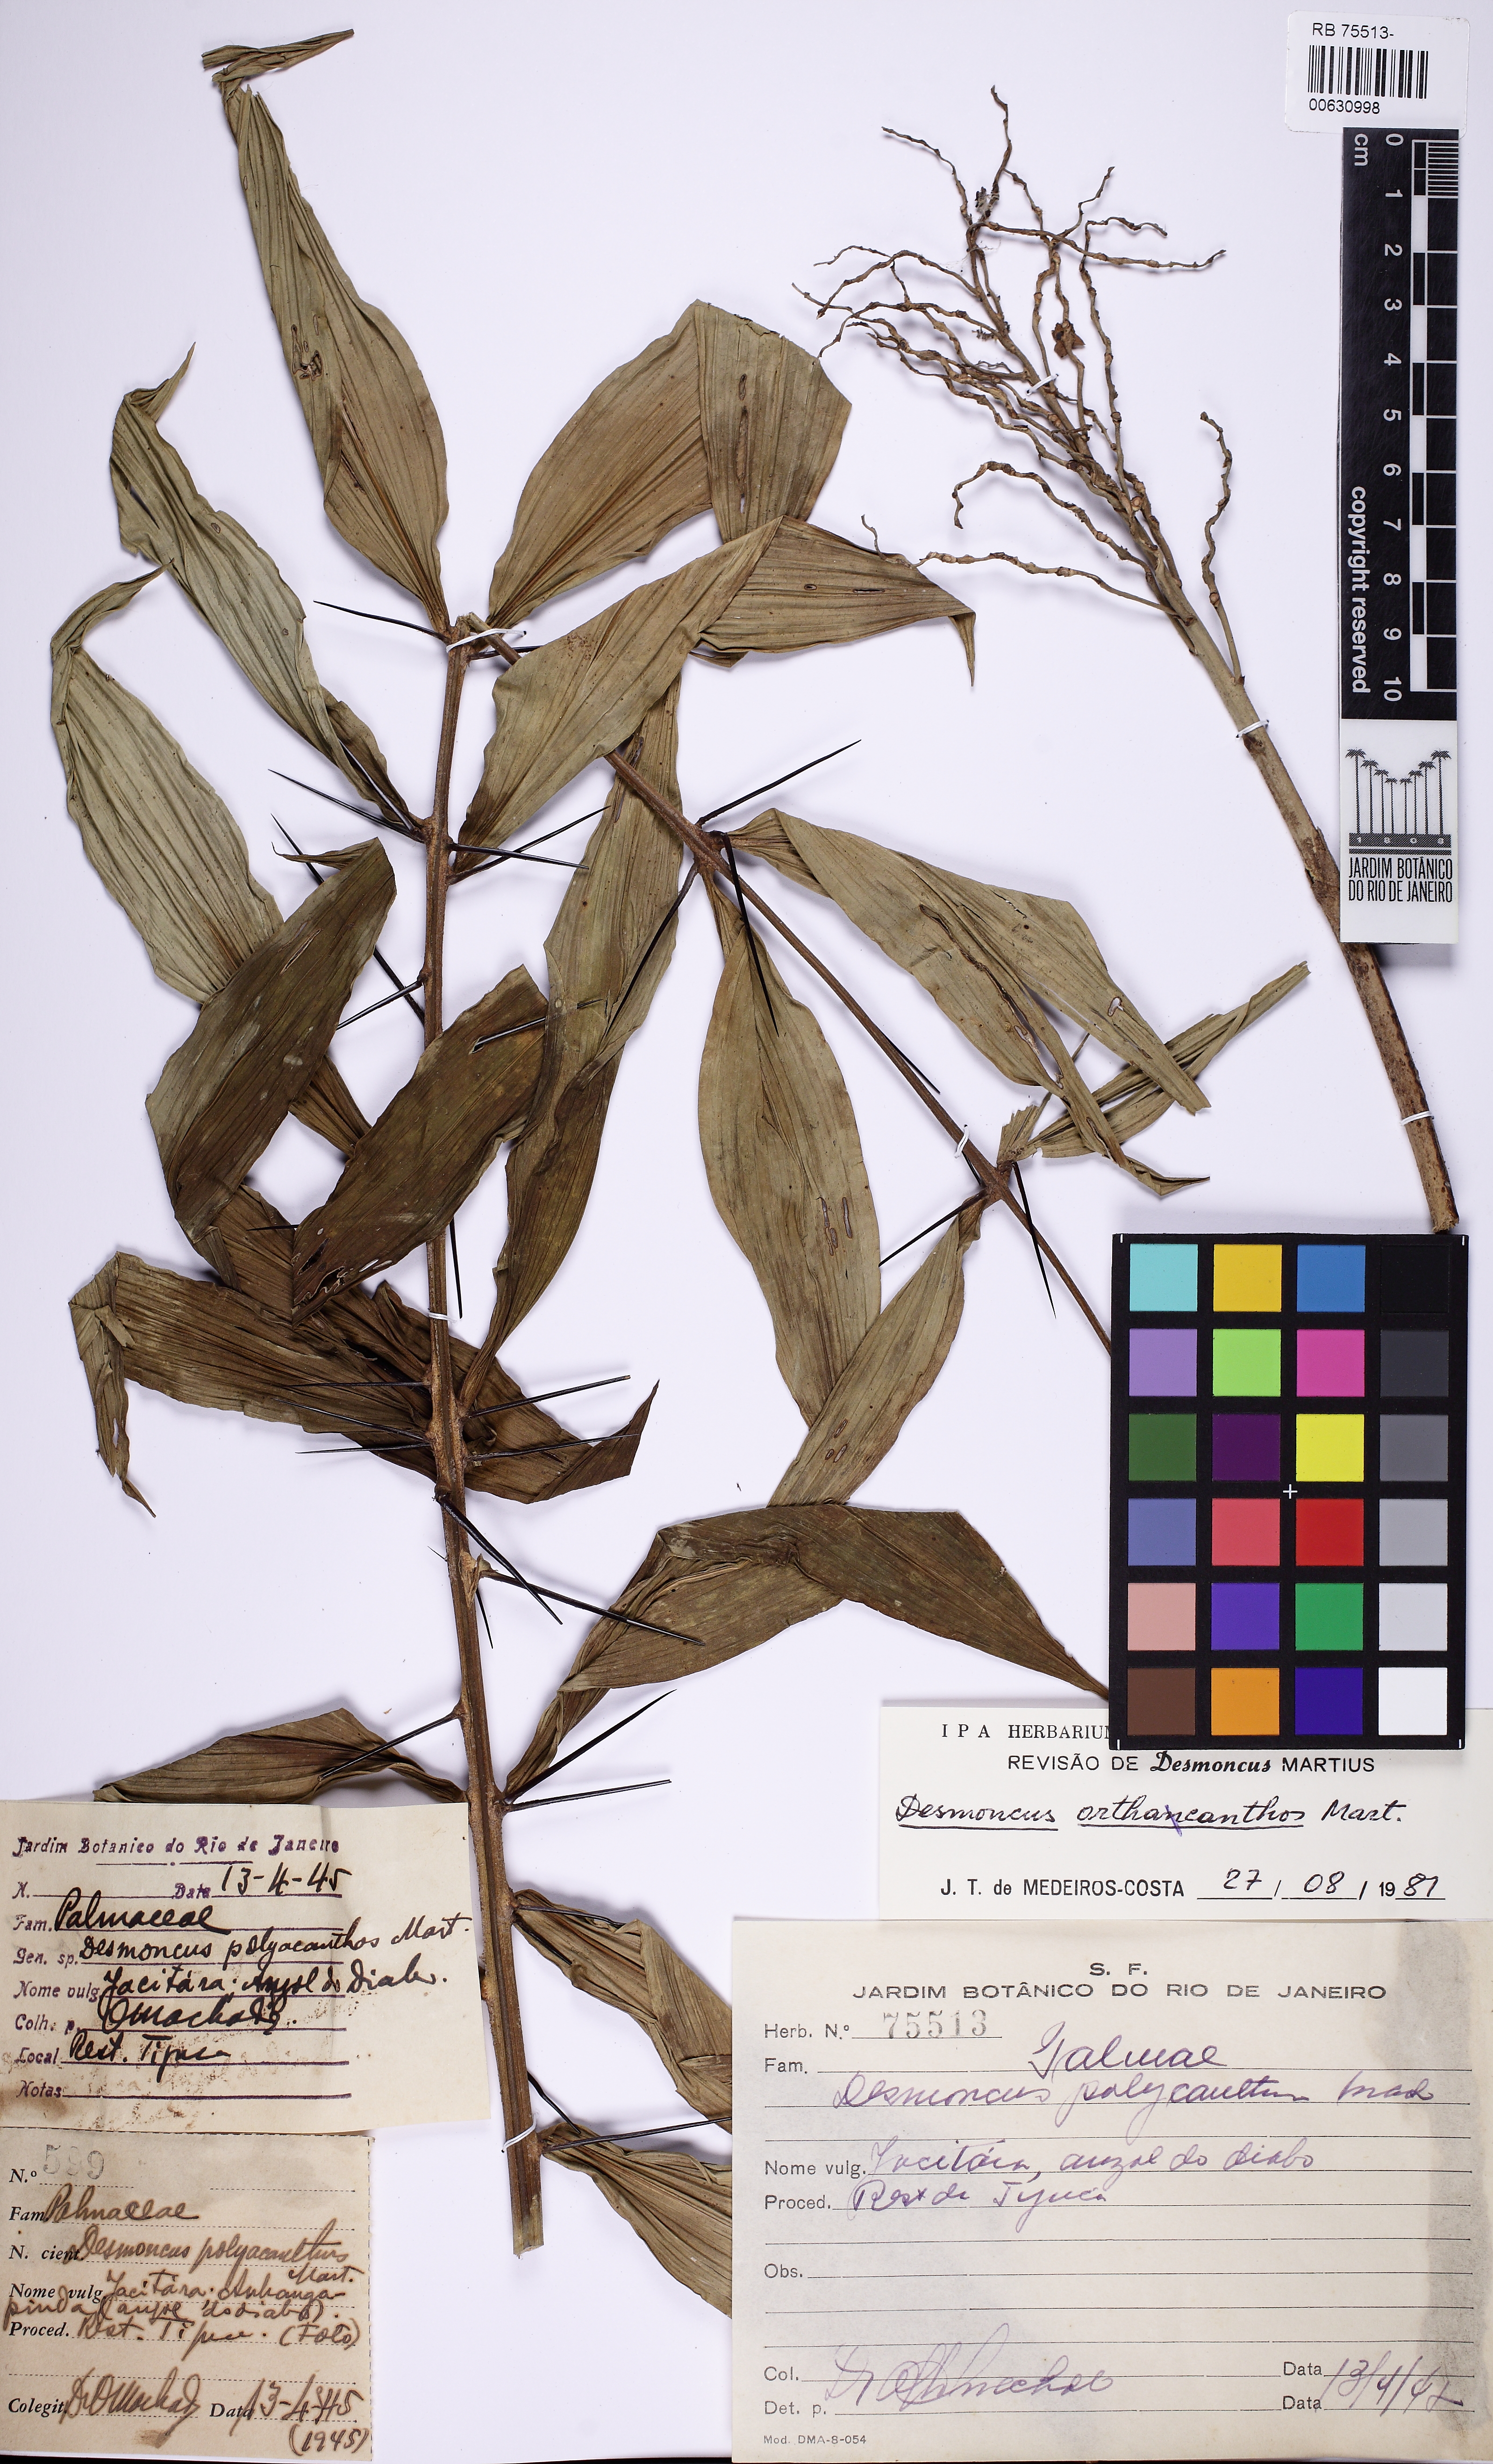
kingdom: Plantae
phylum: Tracheophyta
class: Liliopsida
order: Arecales
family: Arecaceae
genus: Desmoncus
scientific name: Desmoncus orthacanthos
